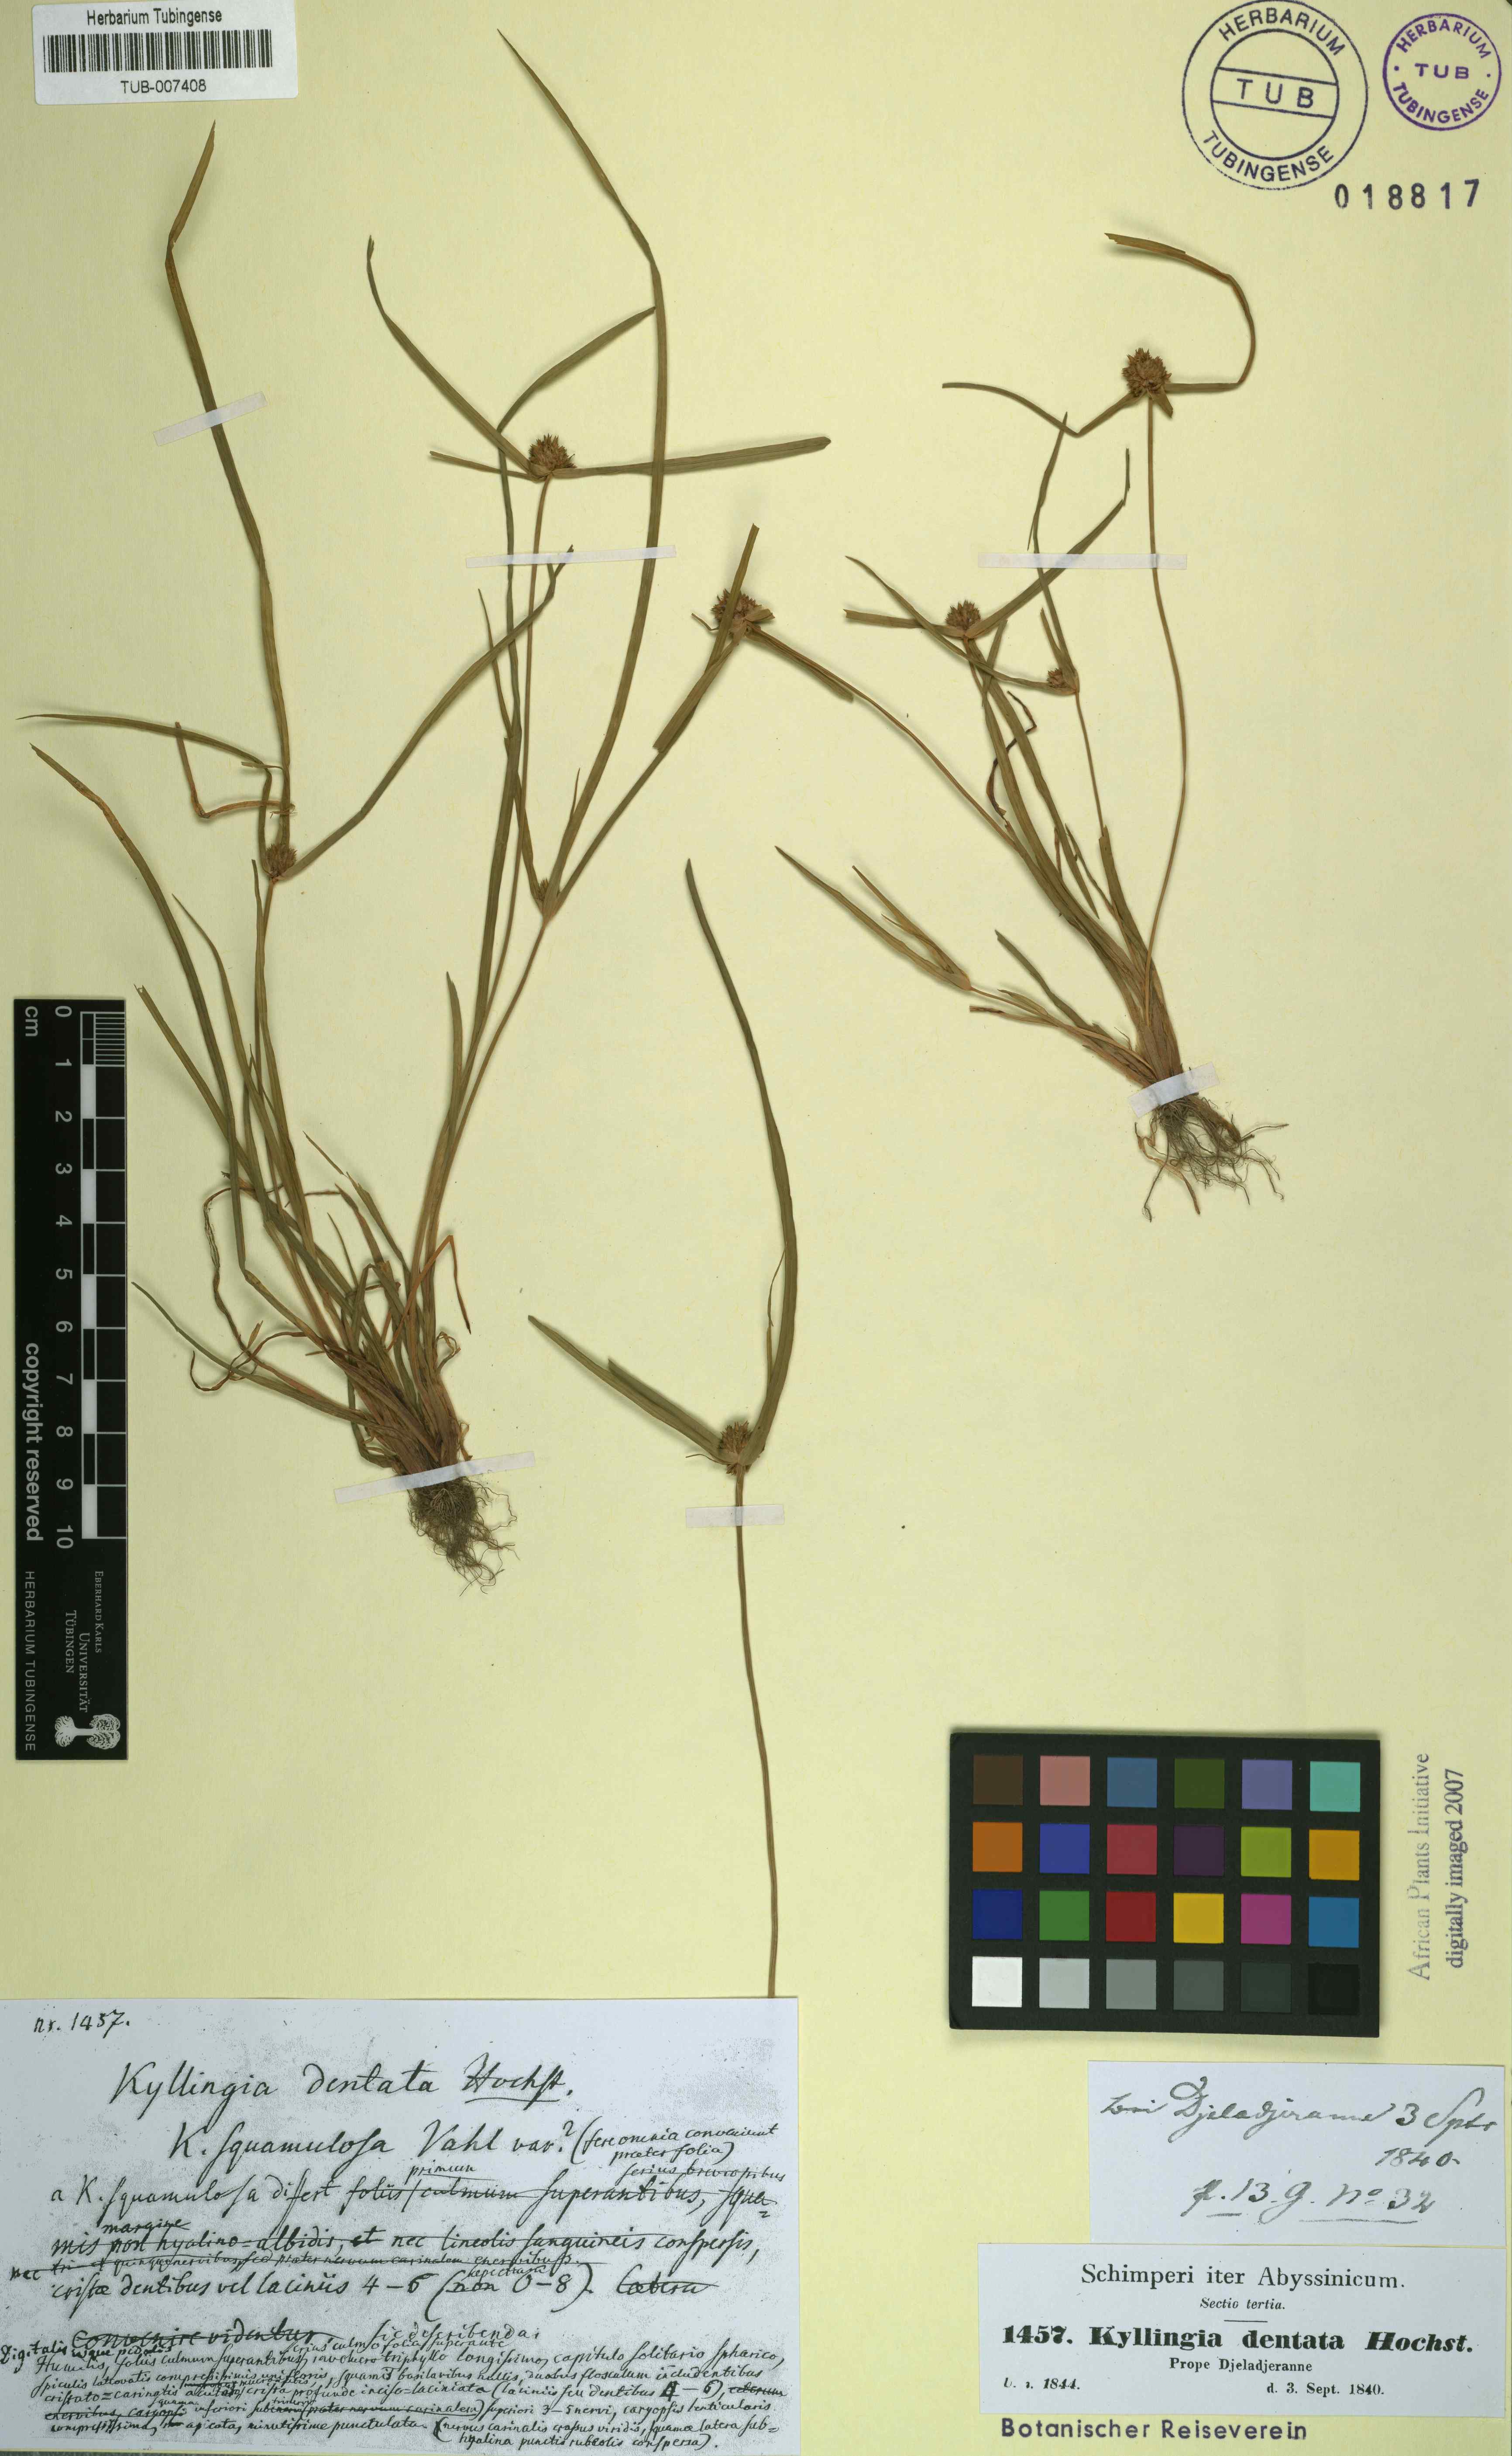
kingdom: Plantae
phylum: Tracheophyta
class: Liliopsida
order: Poales
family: Cyperaceae
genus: Cyperus
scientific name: Cyperus metzii
